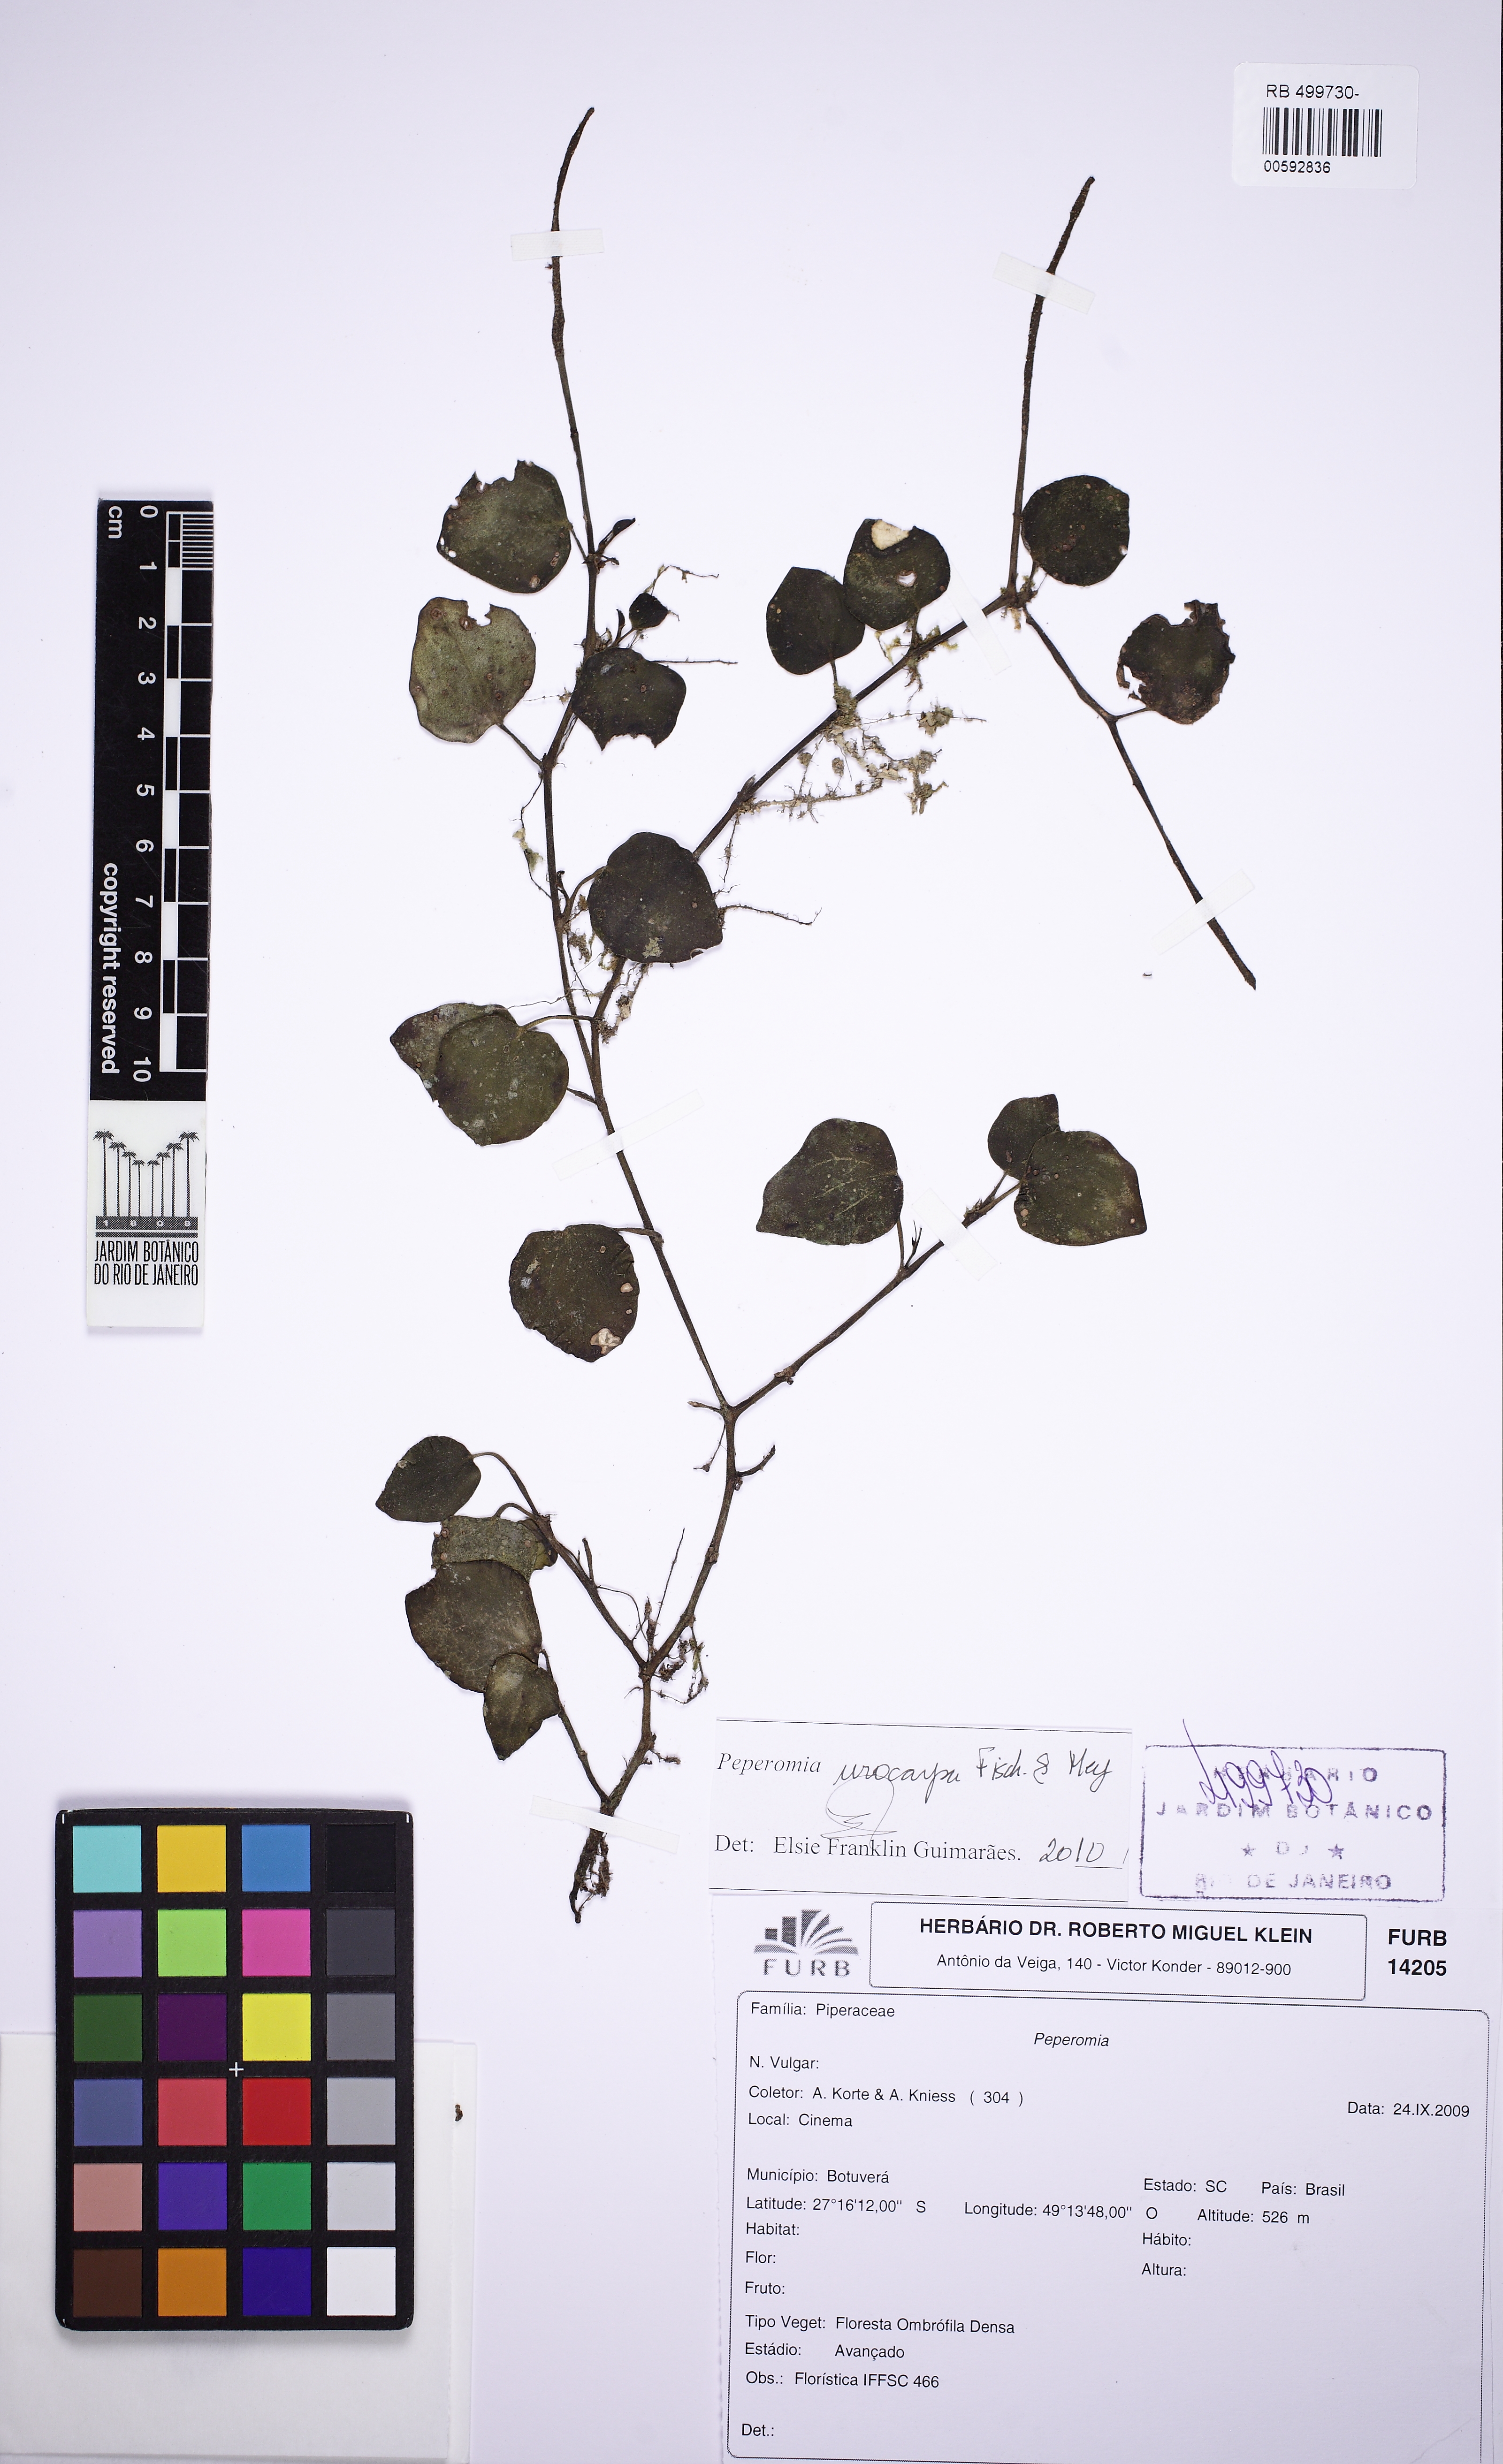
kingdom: Plantae
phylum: Tracheophyta
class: Magnoliopsida
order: Piperales
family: Piperaceae
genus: Peperomia
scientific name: Peperomia urocarpa
